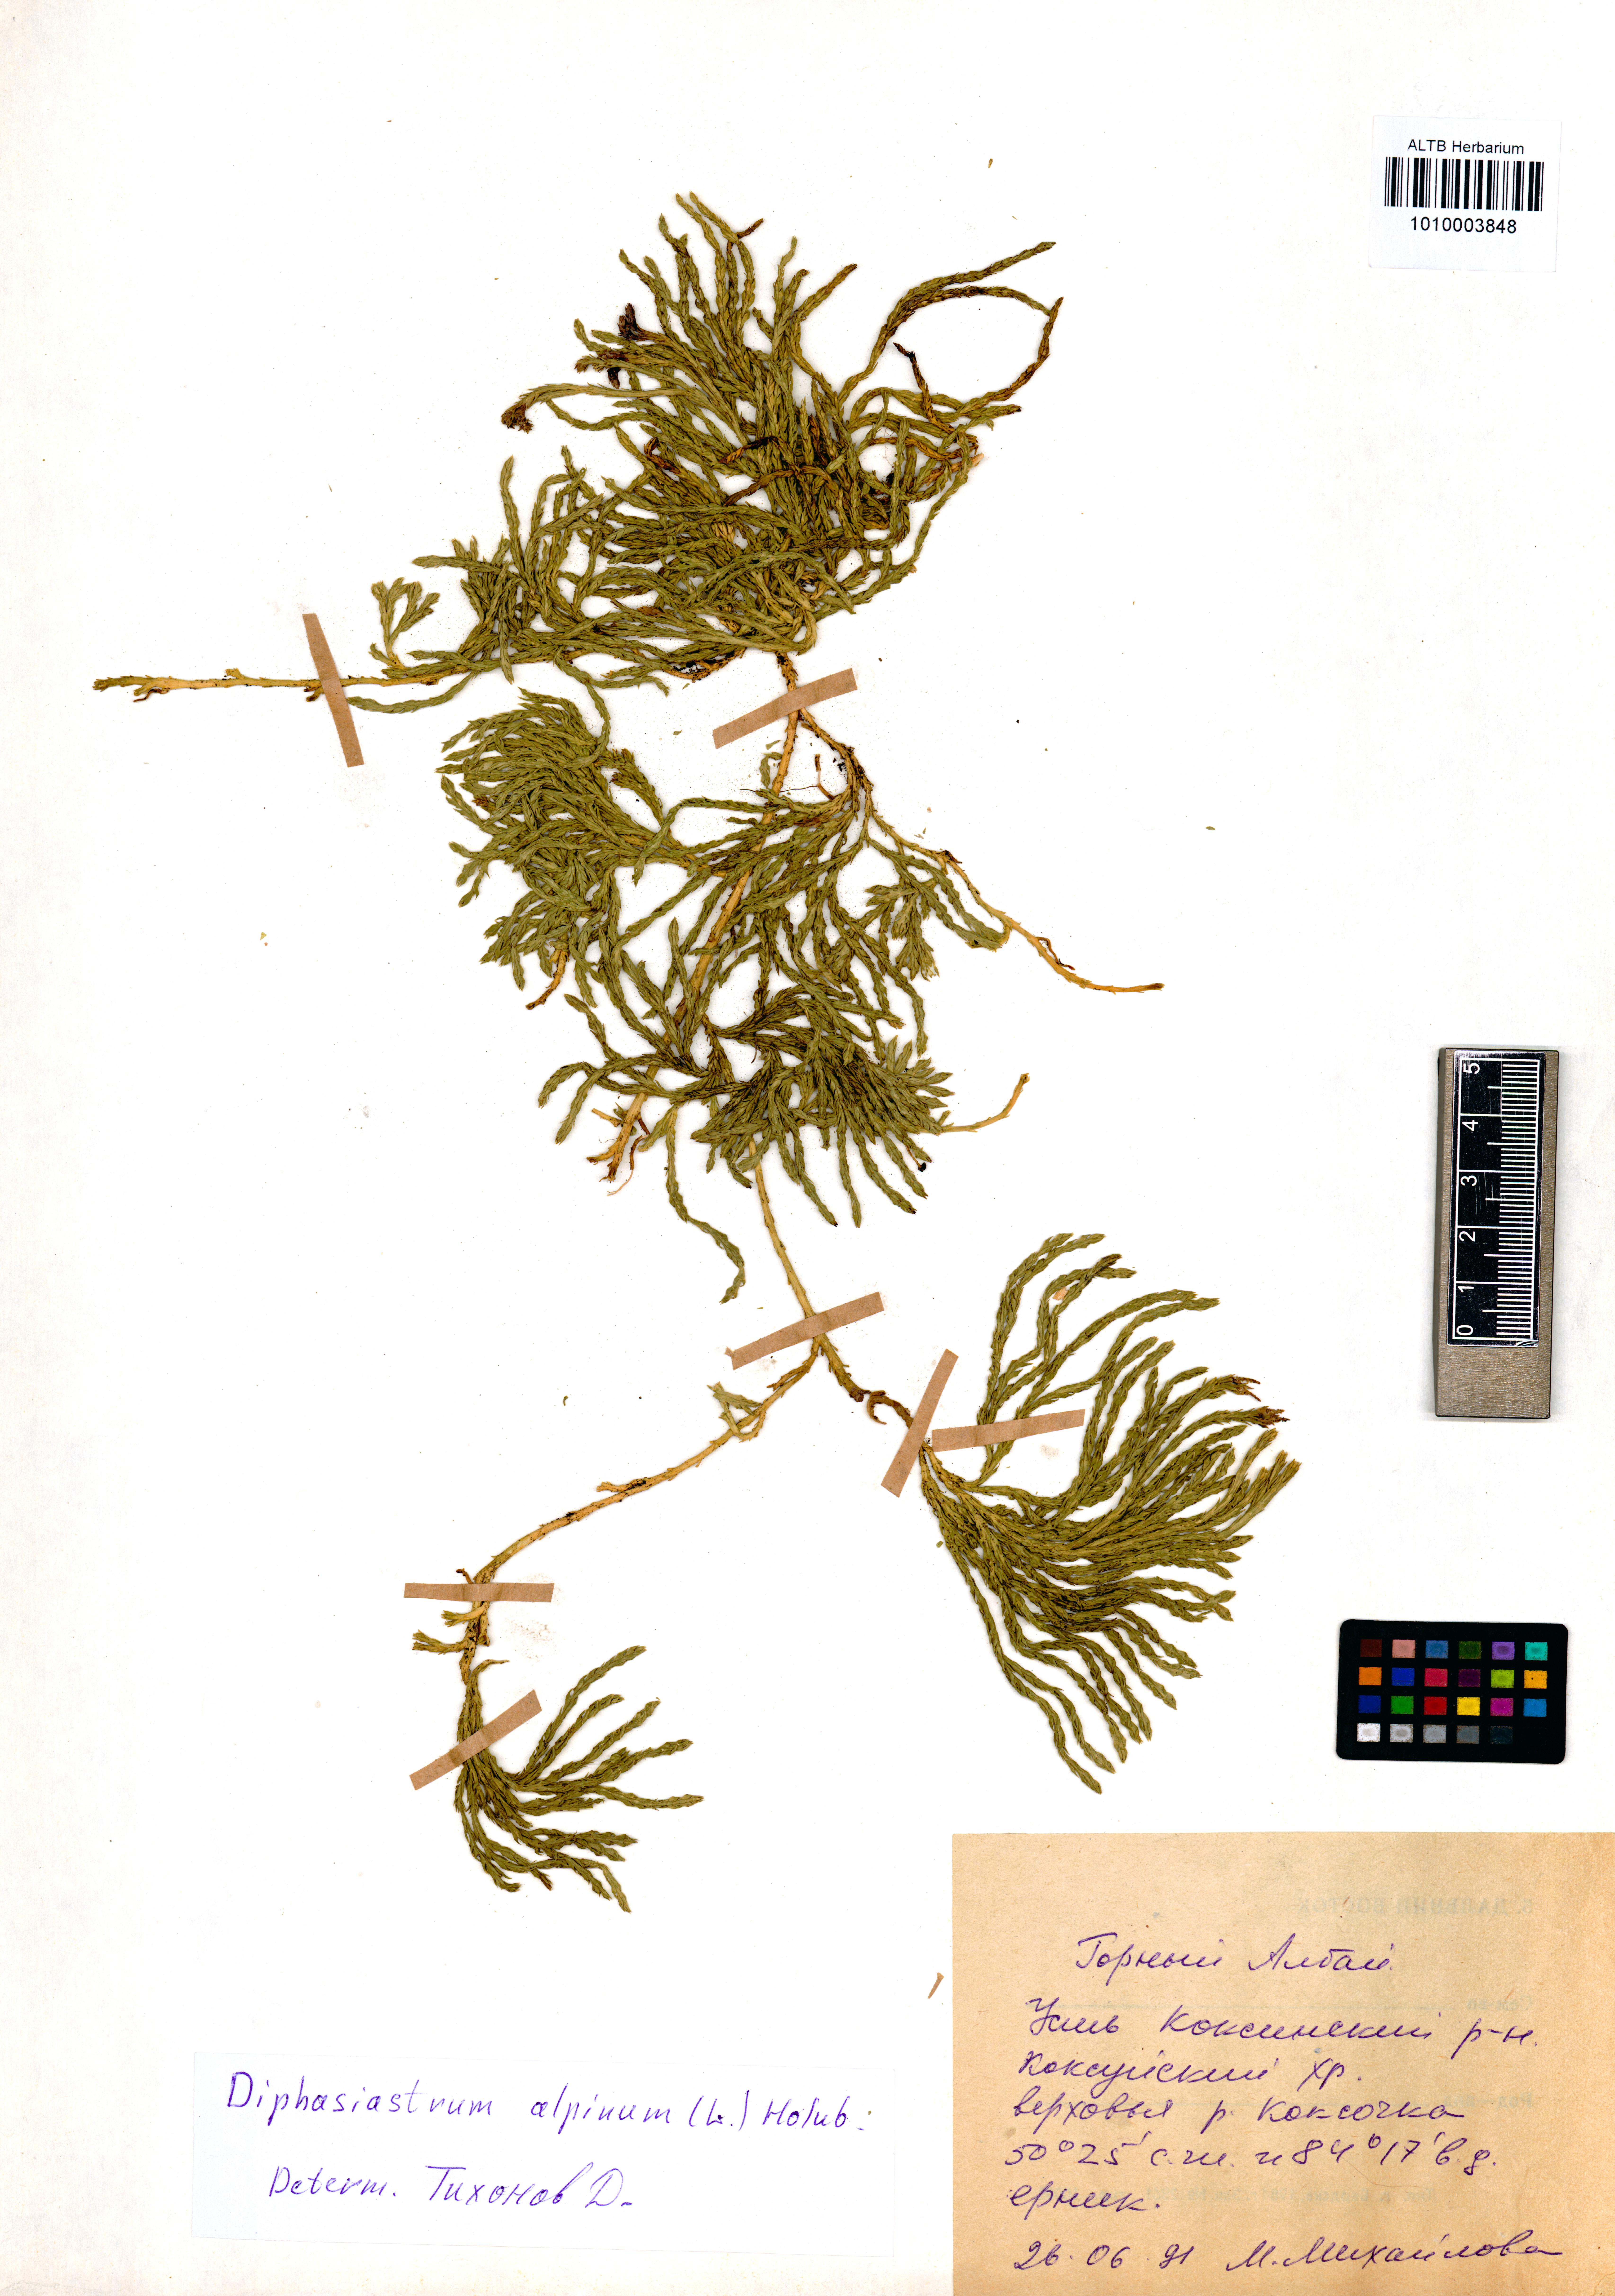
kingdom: Plantae
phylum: Tracheophyta
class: Lycopodiopsida
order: Lycopodiales
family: Lycopodiaceae
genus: Diphasiastrum
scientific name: Diphasiastrum alpinum
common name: Alpine clubmoss
